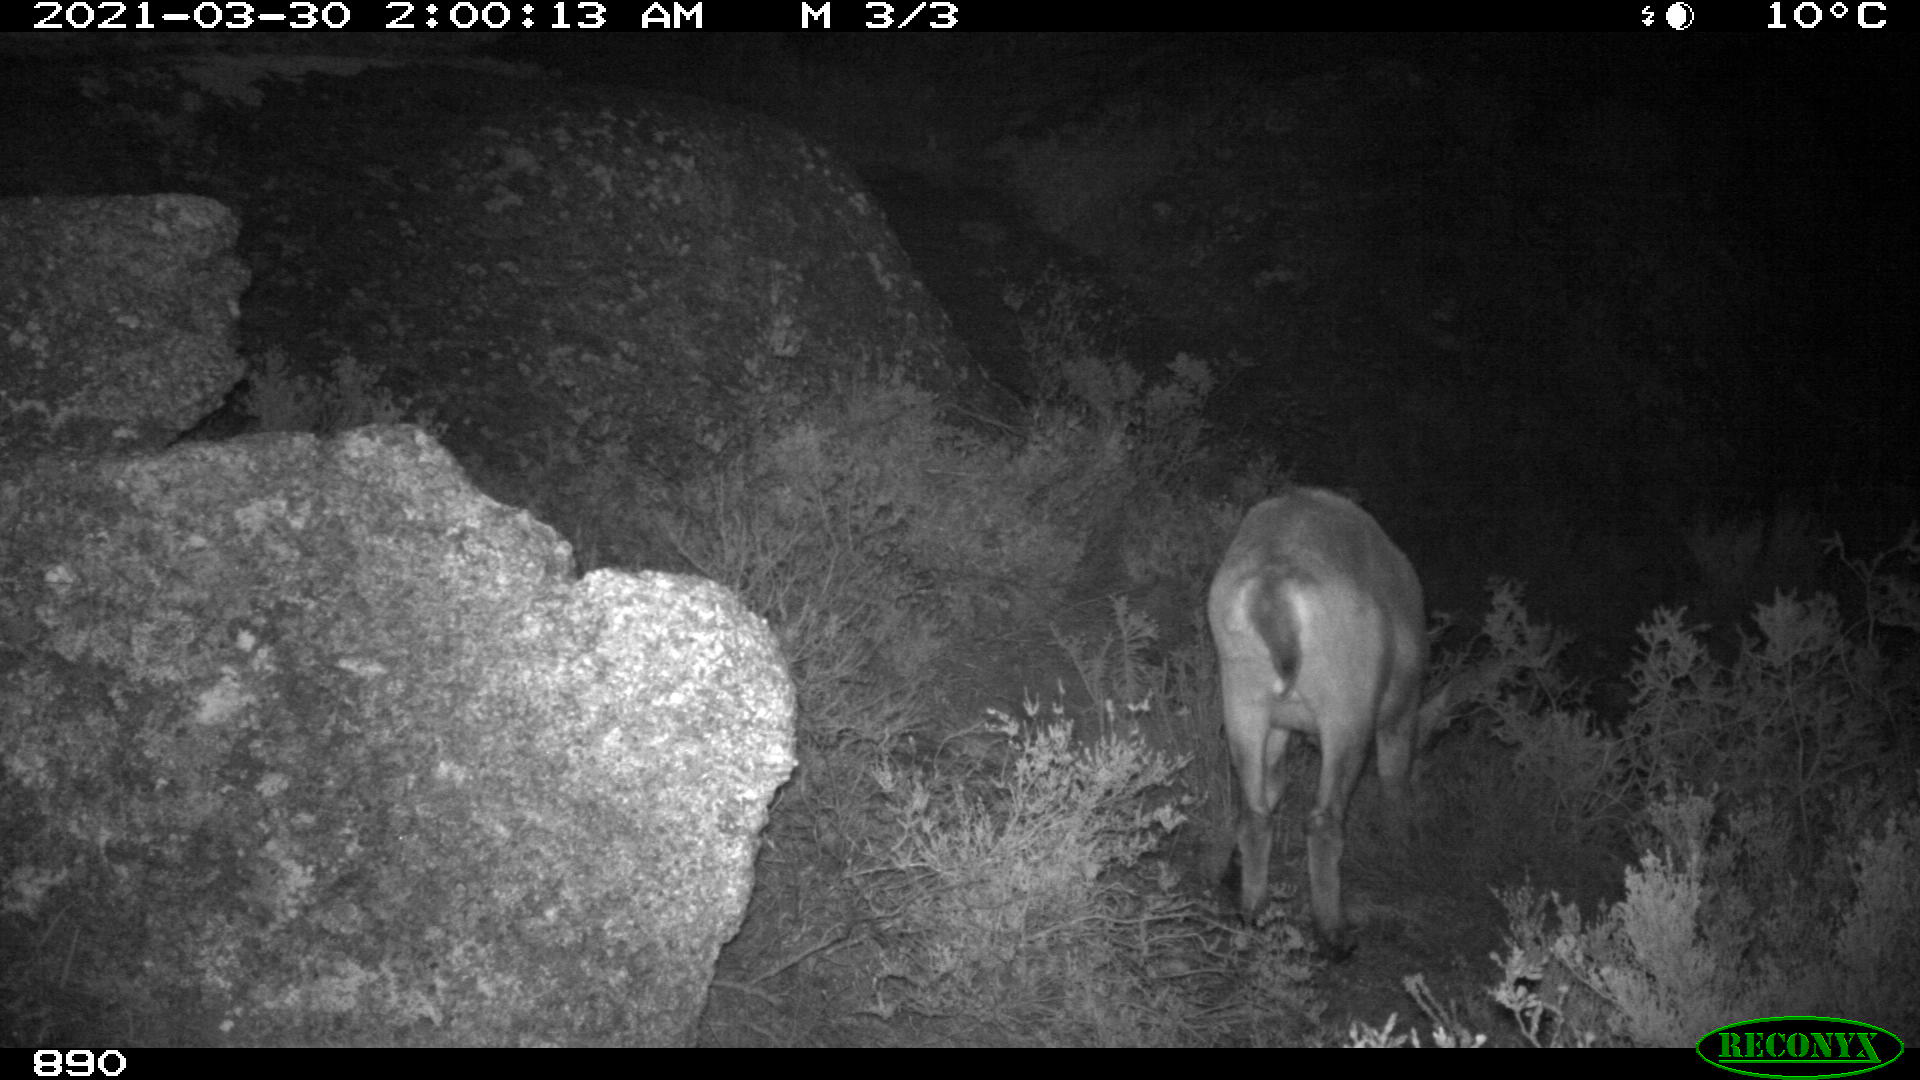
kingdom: Animalia
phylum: Chordata
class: Mammalia
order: Artiodactyla
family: Bovidae
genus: Capra
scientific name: Capra pyrenaica
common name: Spanish ibex
